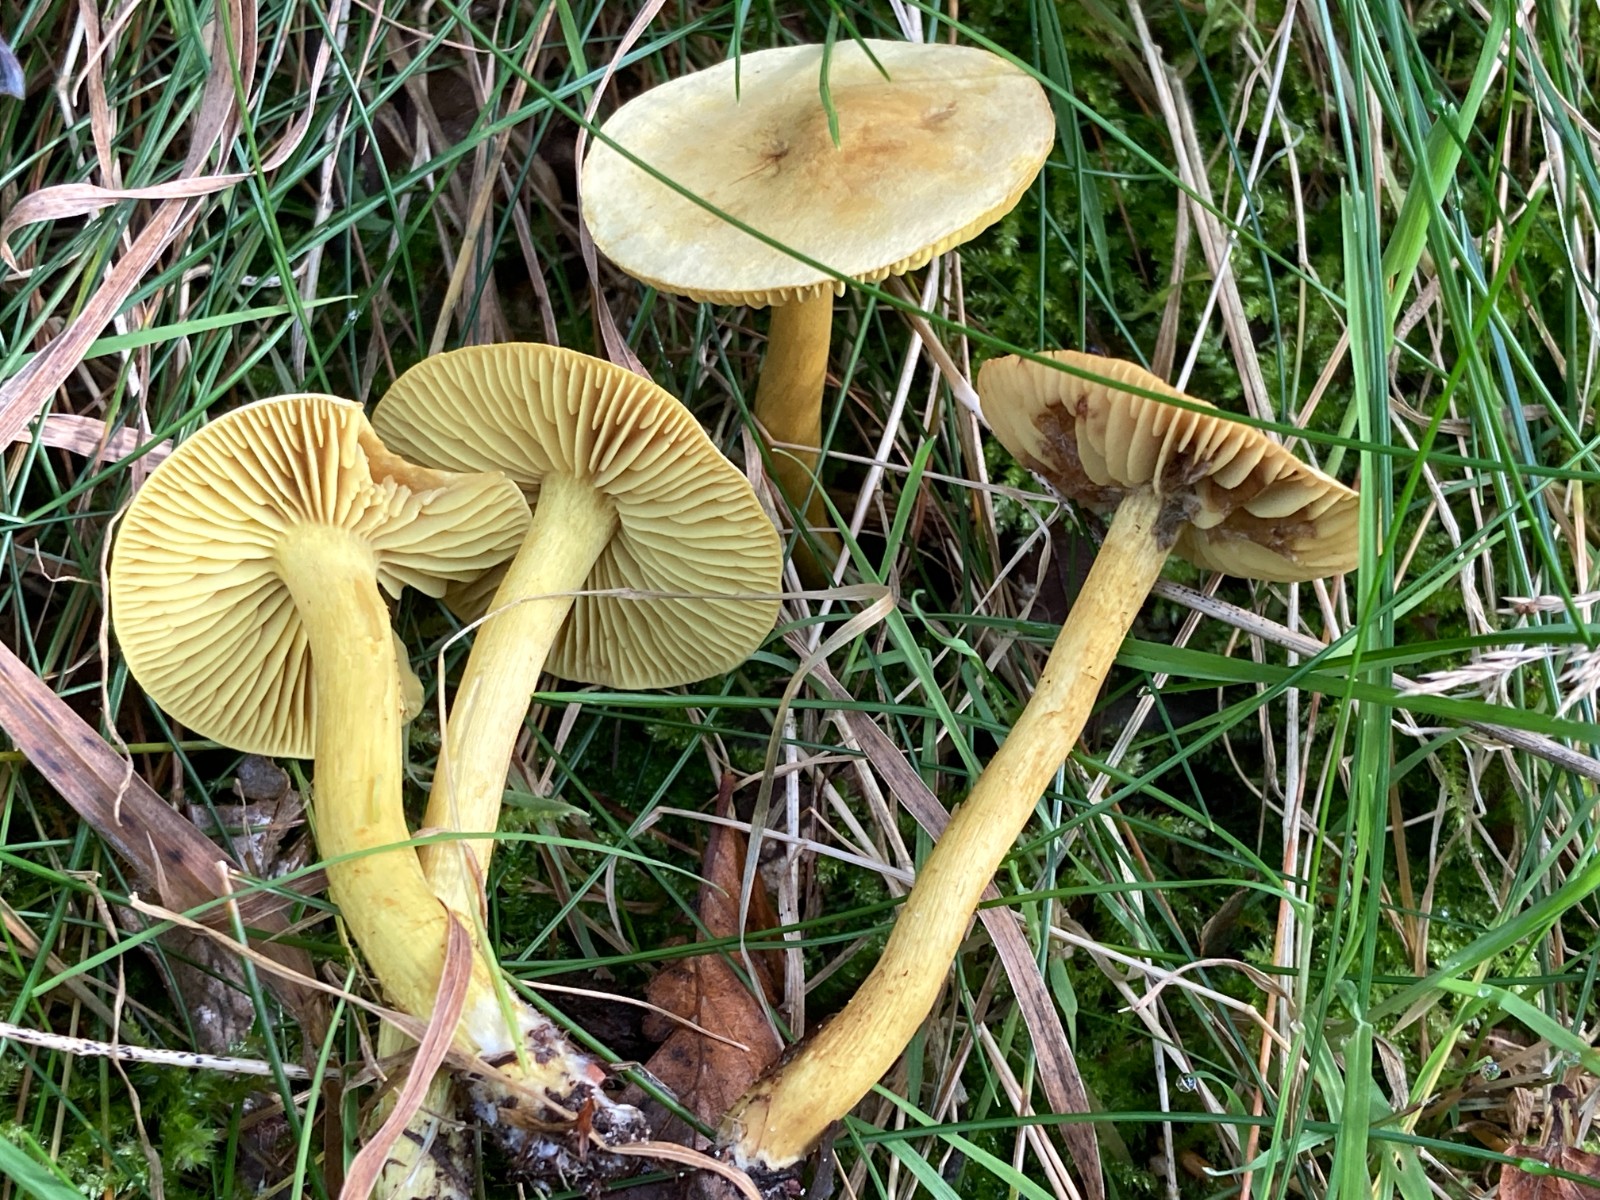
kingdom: Fungi
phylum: Basidiomycota
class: Agaricomycetes
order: Agaricales
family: Tricholomataceae
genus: Tricholoma
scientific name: Tricholoma sulphureum
